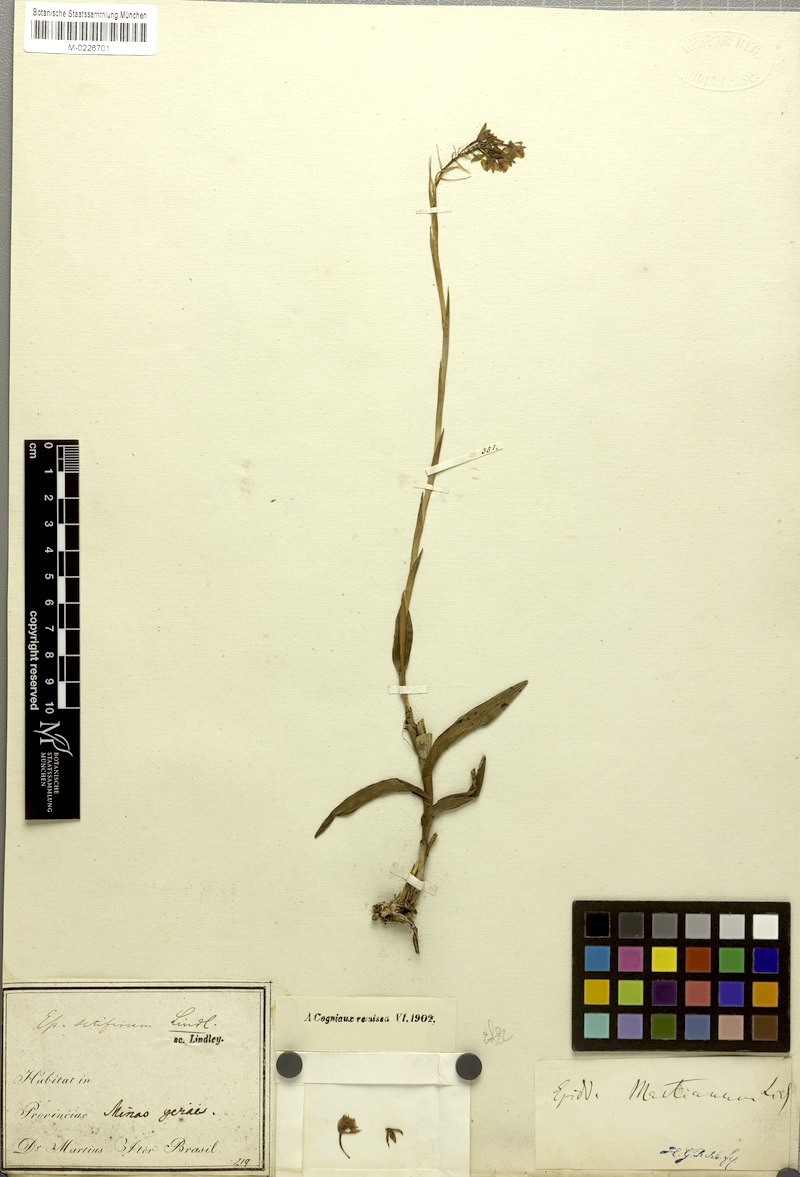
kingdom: Plantae
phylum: Tracheophyta
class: Liliopsida
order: Asparagales
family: Orchidaceae
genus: Epidendrum
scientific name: Epidendrum martianum
